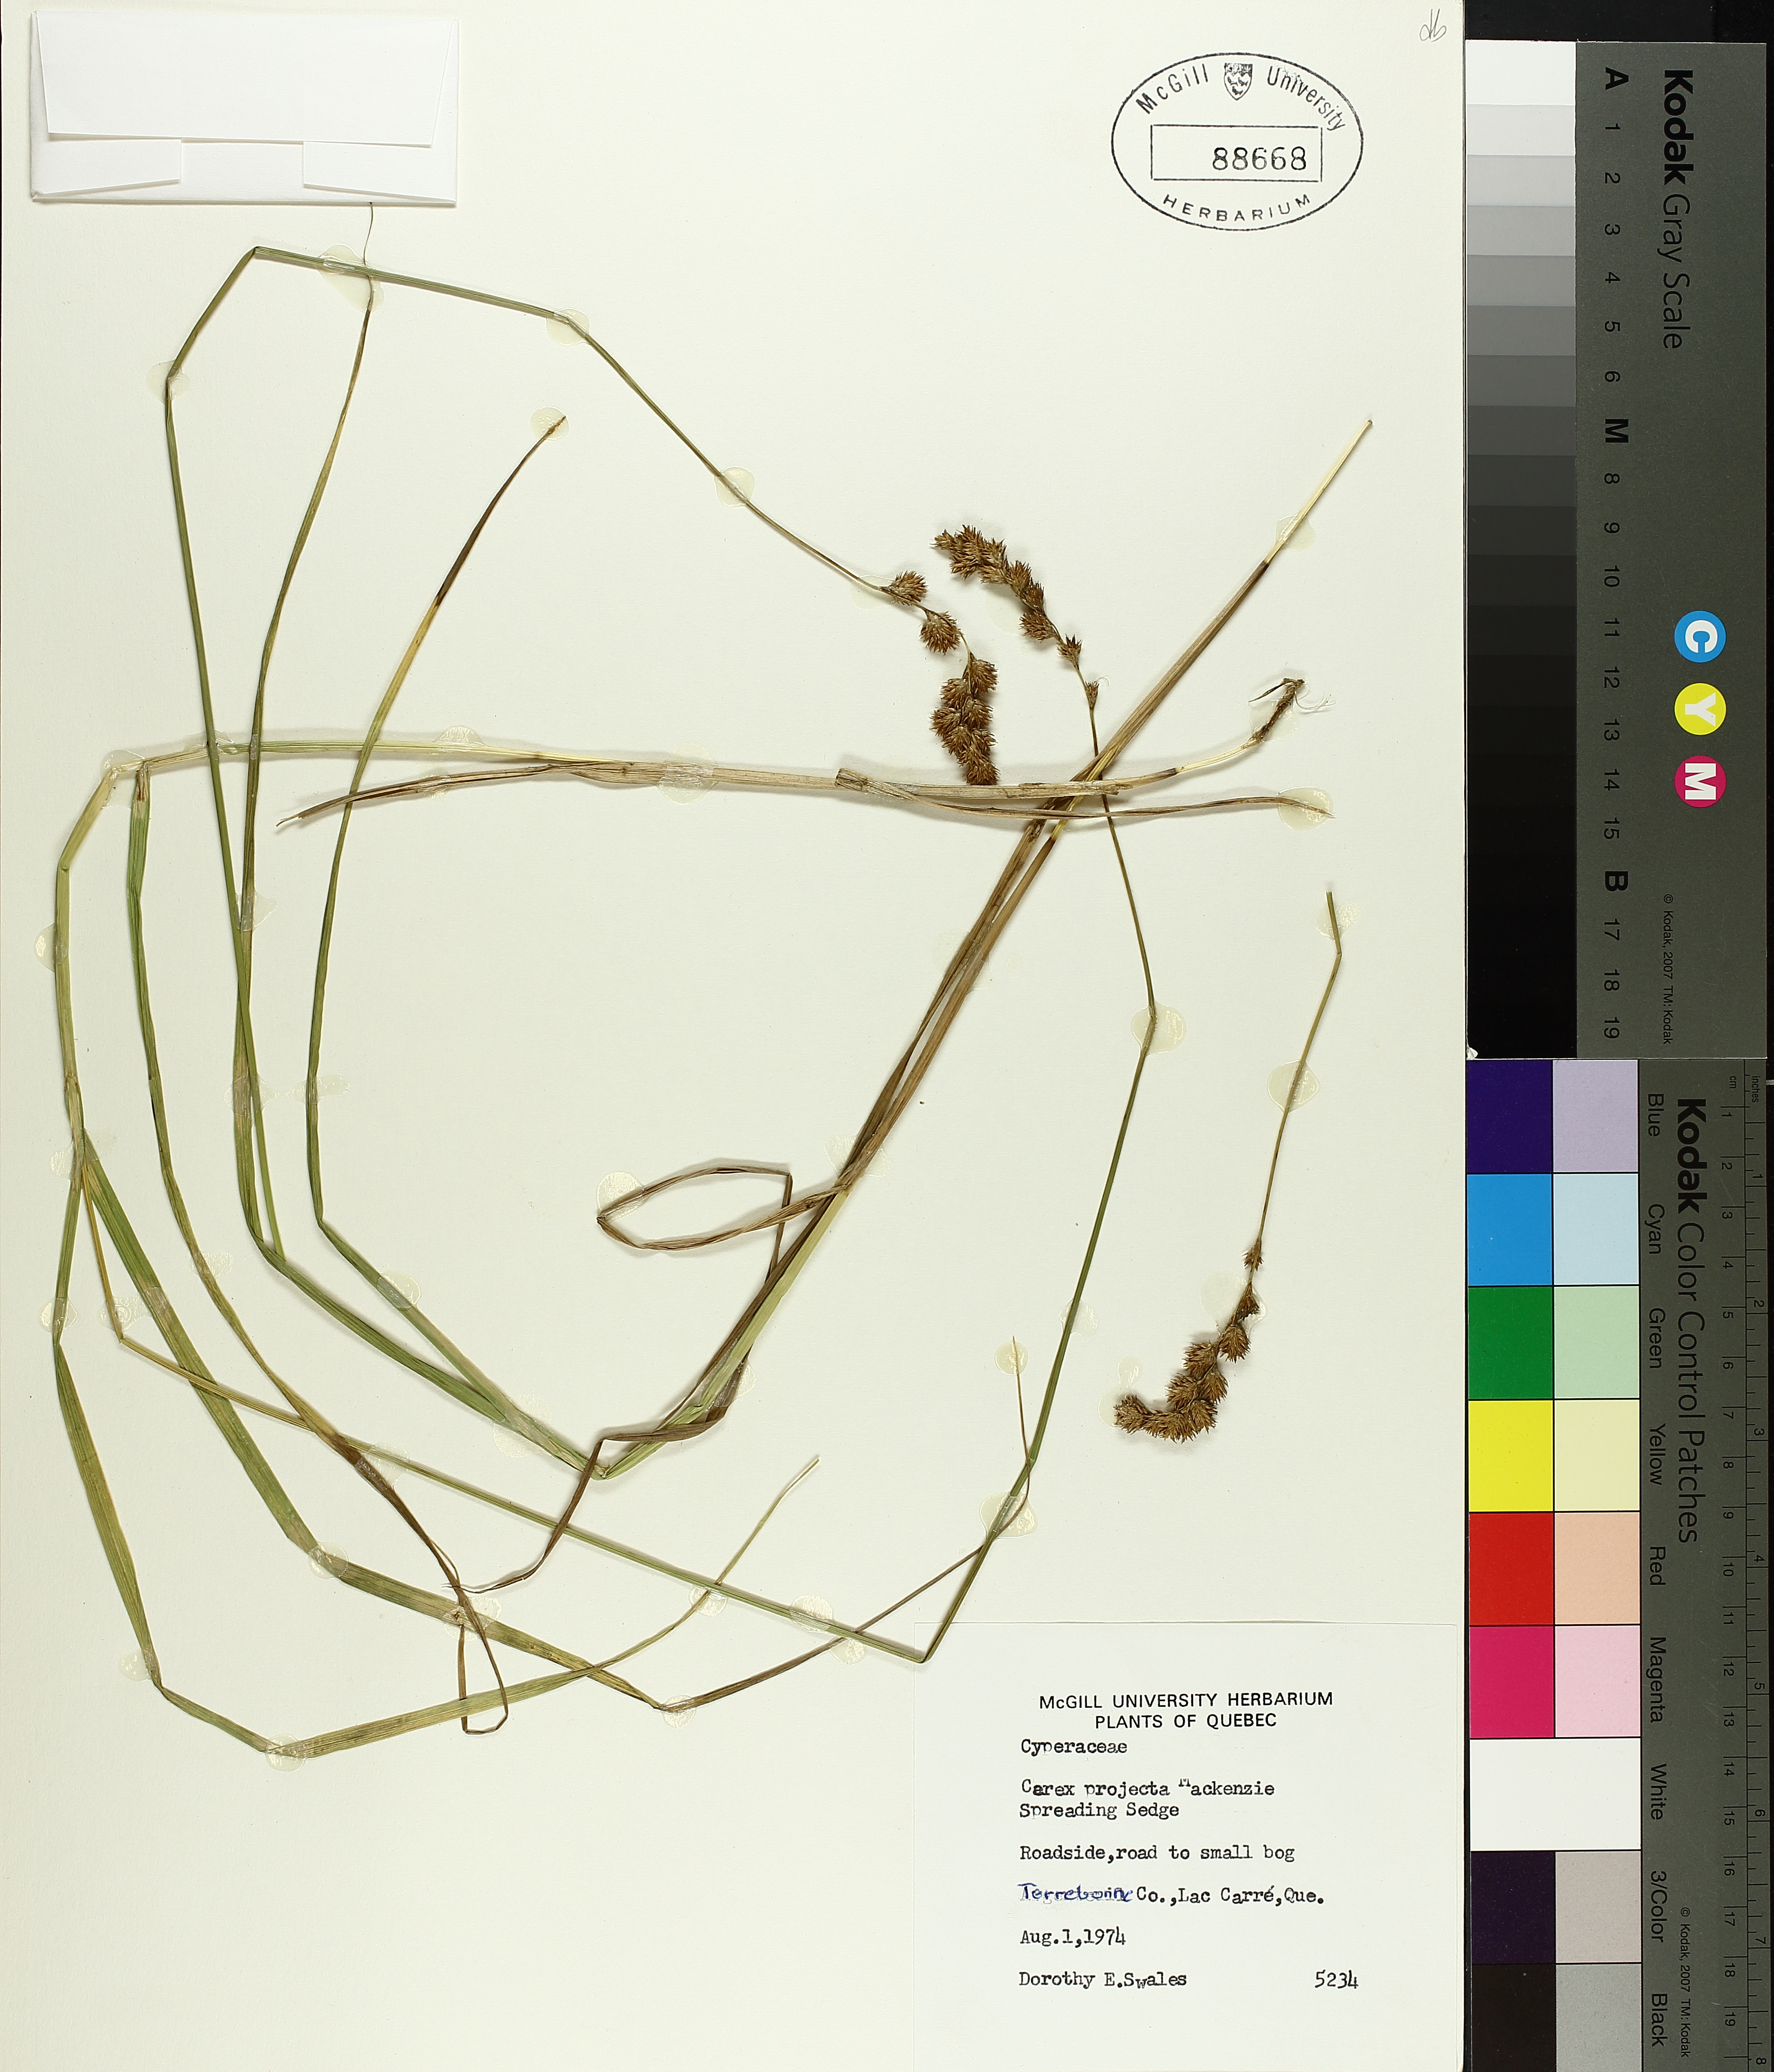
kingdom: Plantae
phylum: Tracheophyta
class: Liliopsida
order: Poales
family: Cyperaceae
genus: Carex
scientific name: Carex projecta
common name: Loose-headed oval sedge
